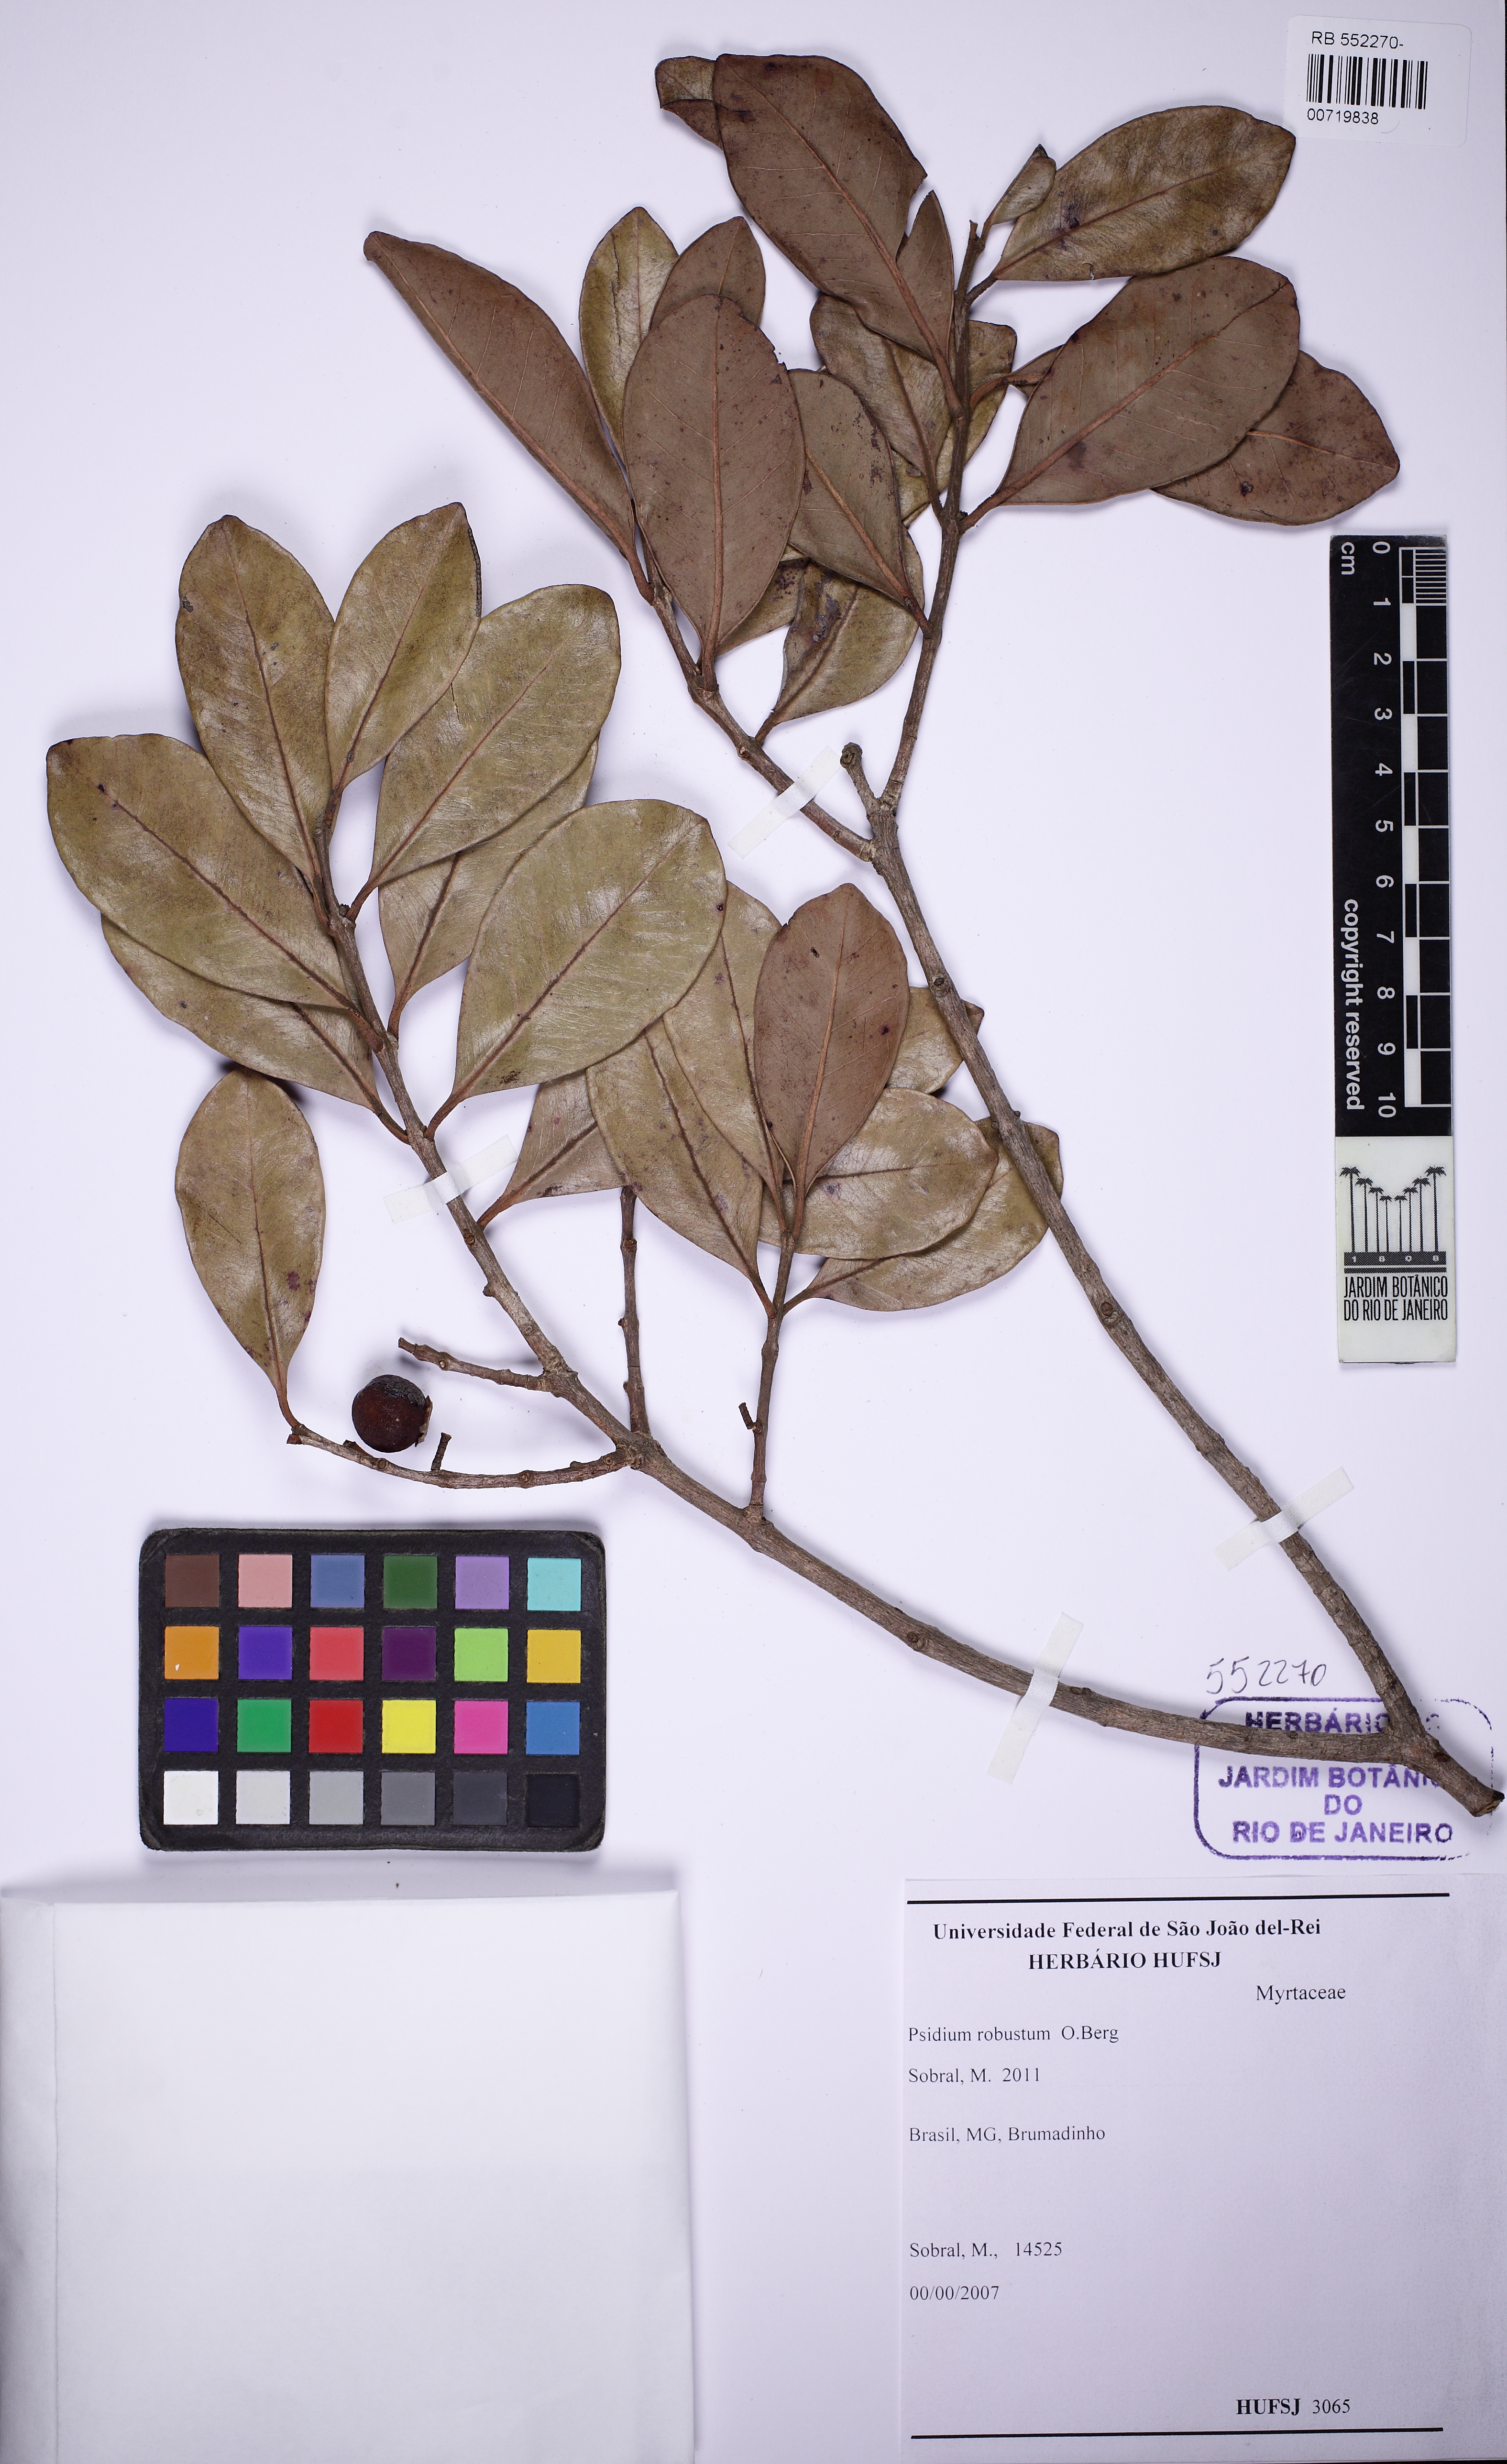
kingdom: Plantae
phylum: Tracheophyta
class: Magnoliopsida
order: Myrtales
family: Myrtaceae
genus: Psidium
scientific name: Psidium robustum
